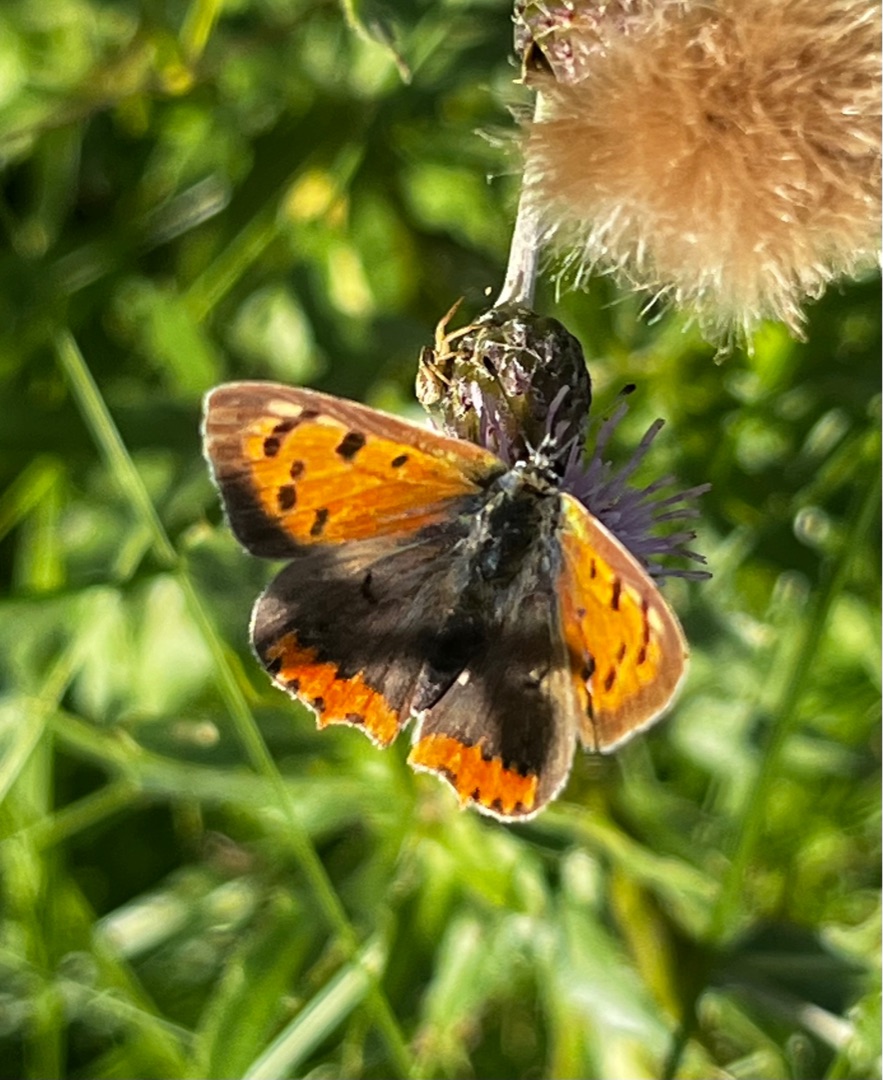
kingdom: Animalia
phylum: Arthropoda
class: Insecta
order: Lepidoptera
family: Lycaenidae
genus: Lycaena
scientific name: Lycaena phlaeas
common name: Lille ildfugl
